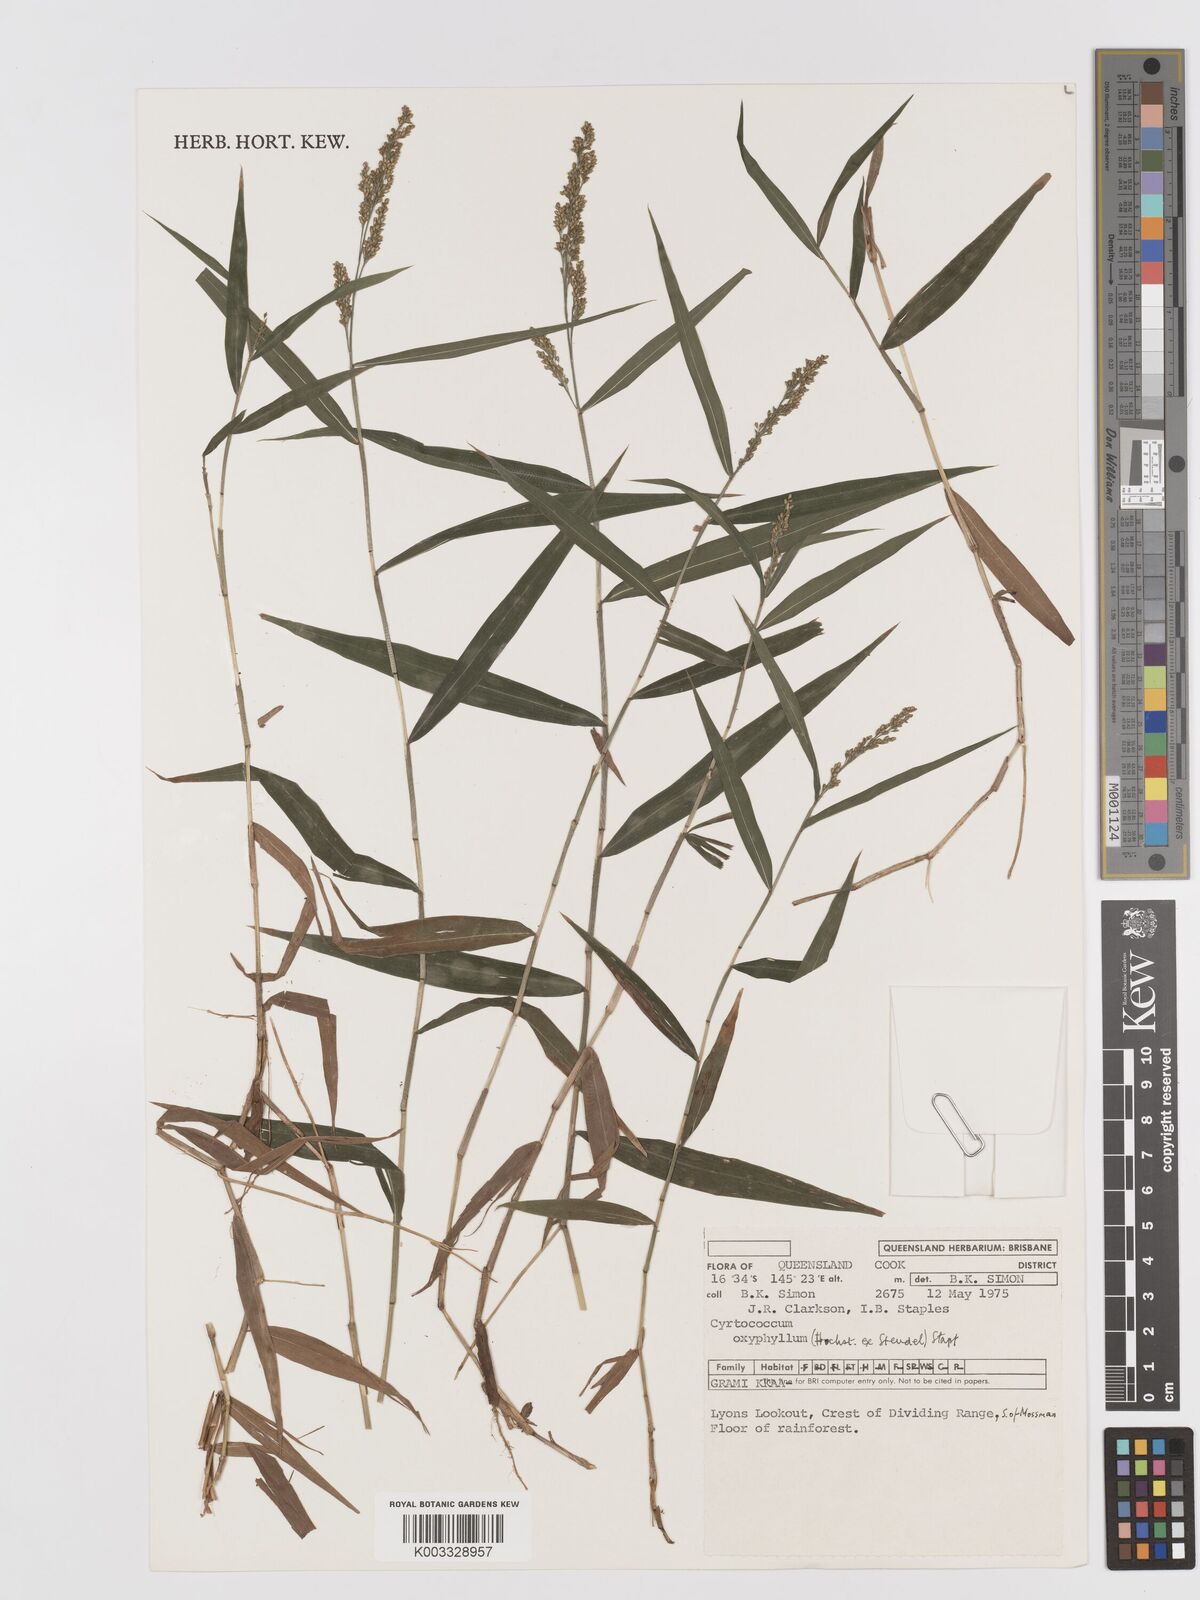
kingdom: Plantae
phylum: Tracheophyta
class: Liliopsida
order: Poales
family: Poaceae
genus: Cyrtococcum
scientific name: Cyrtococcum oxyphyllum
